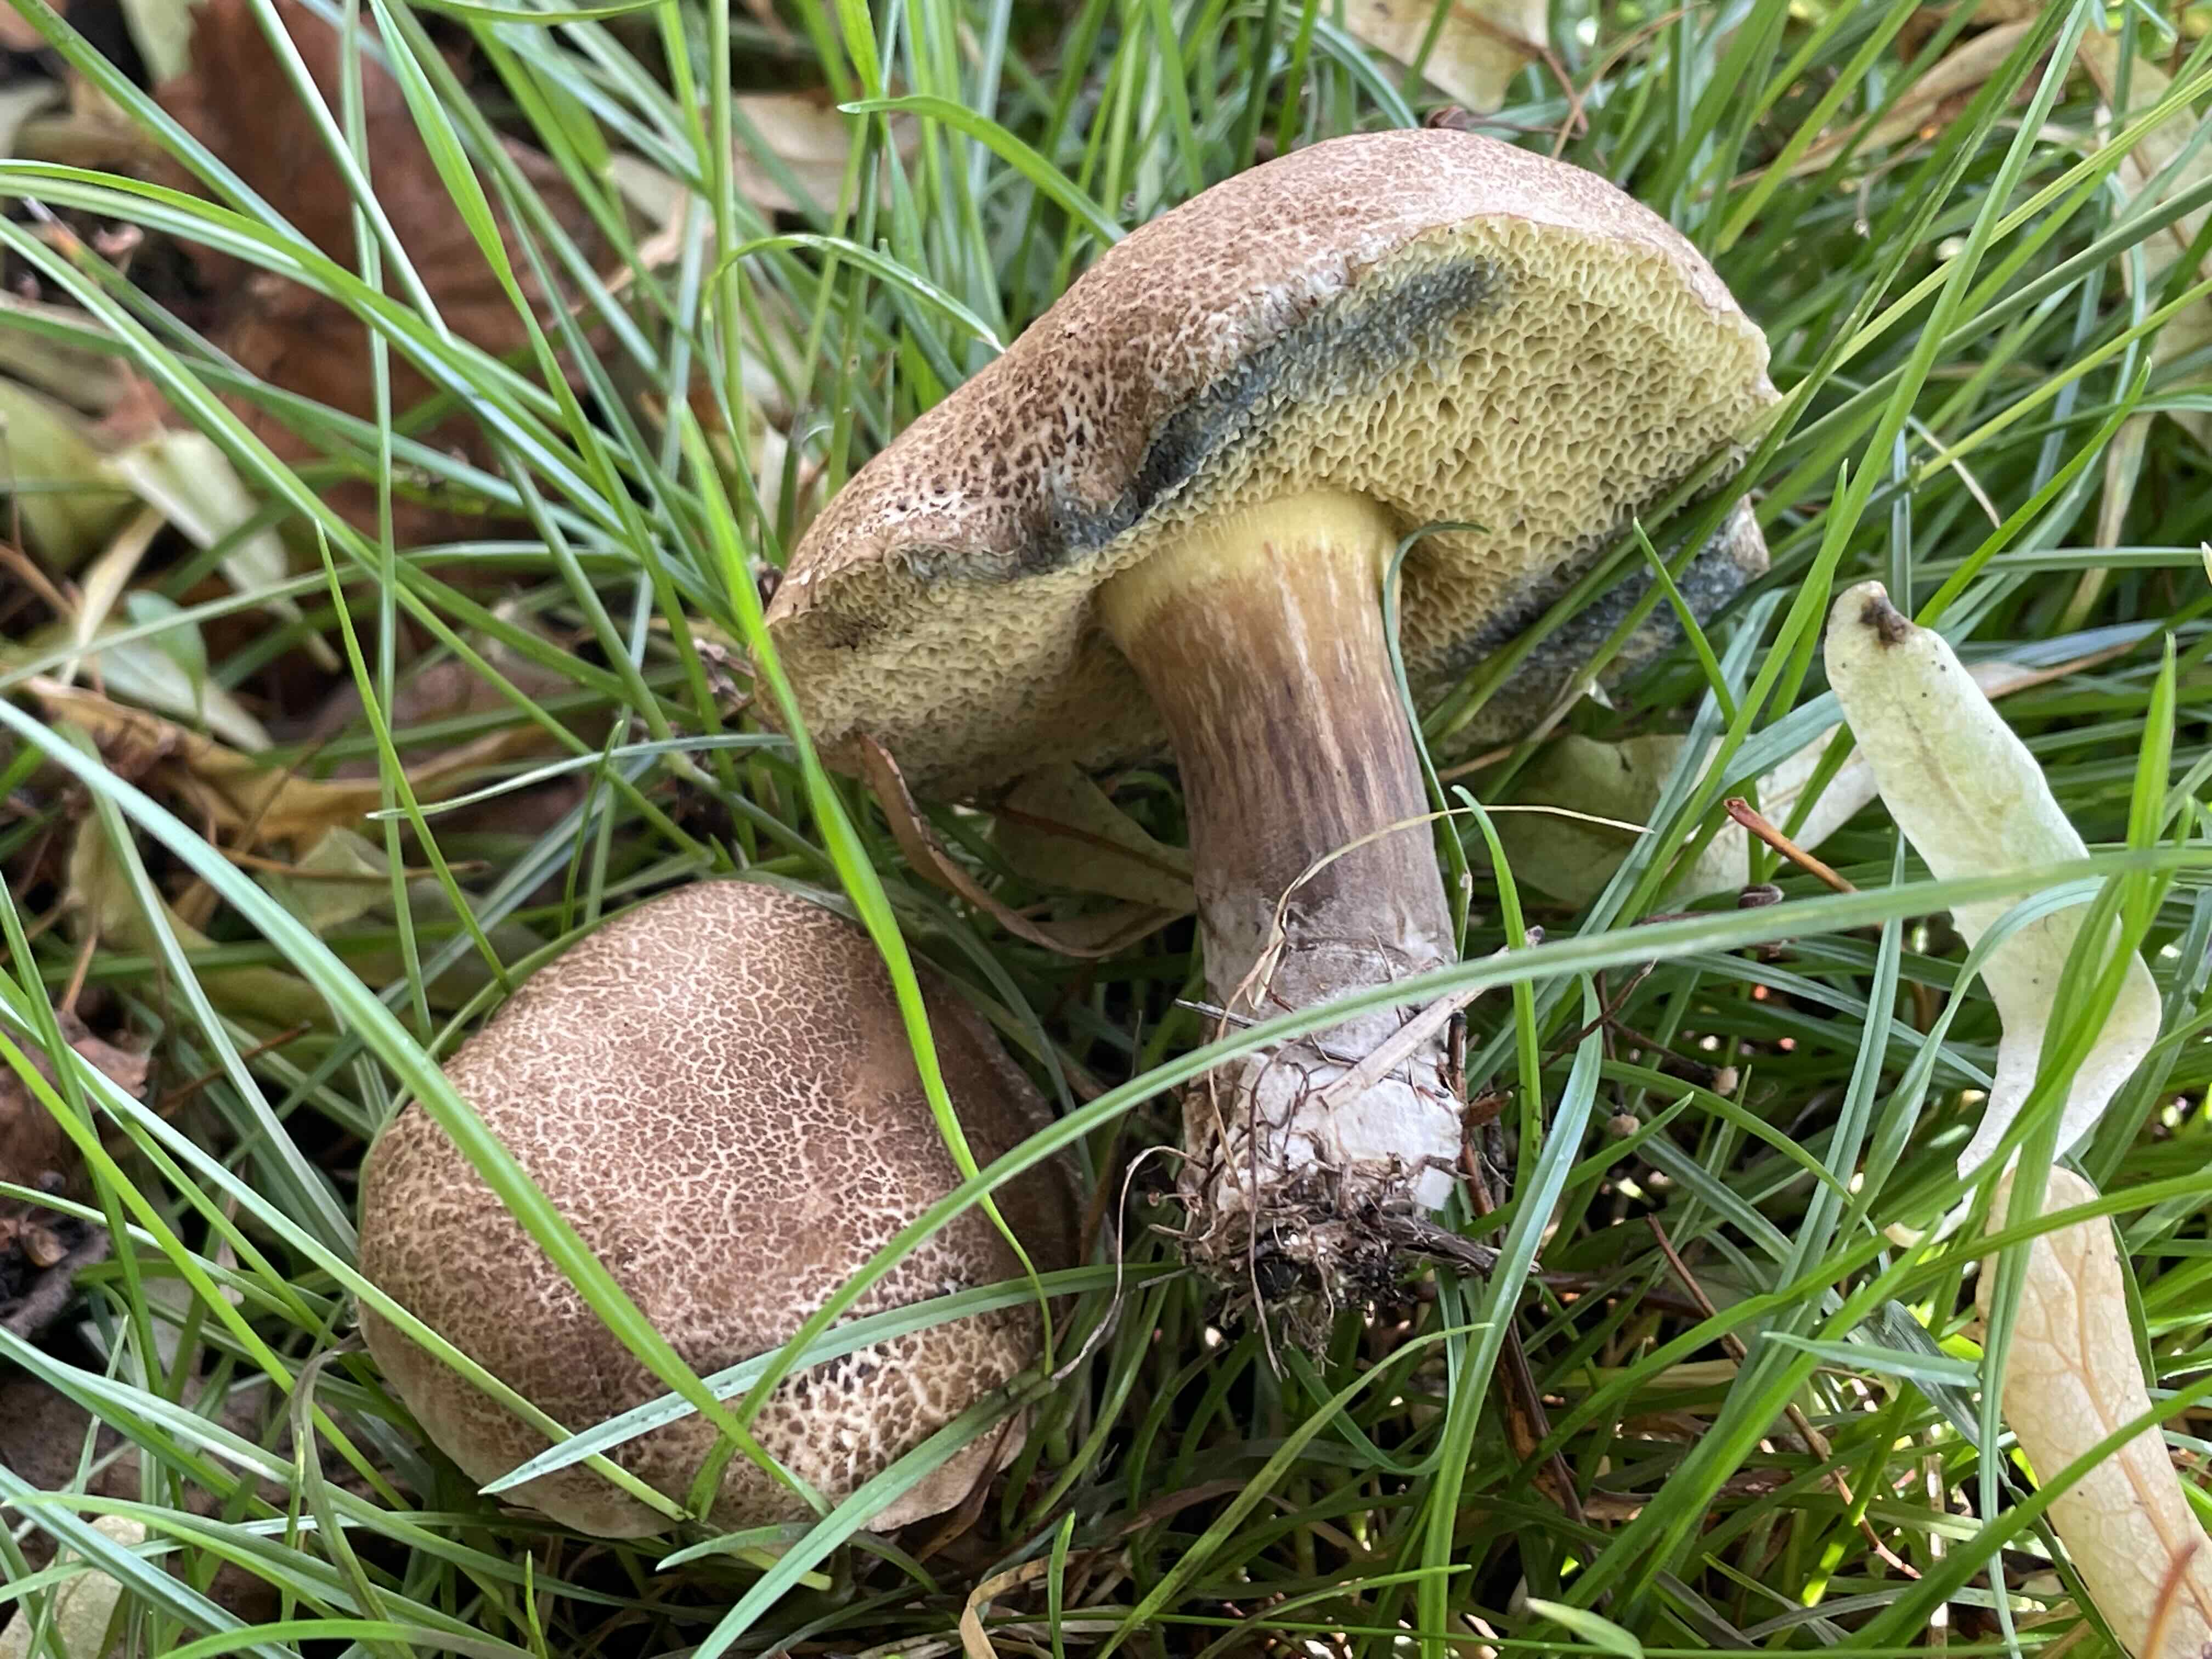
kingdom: Fungi
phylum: Basidiomycota
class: Agaricomycetes
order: Boletales
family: Boletaceae
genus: Xerocomellus
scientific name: Xerocomellus porosporus
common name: hvidsprukken rørhat
